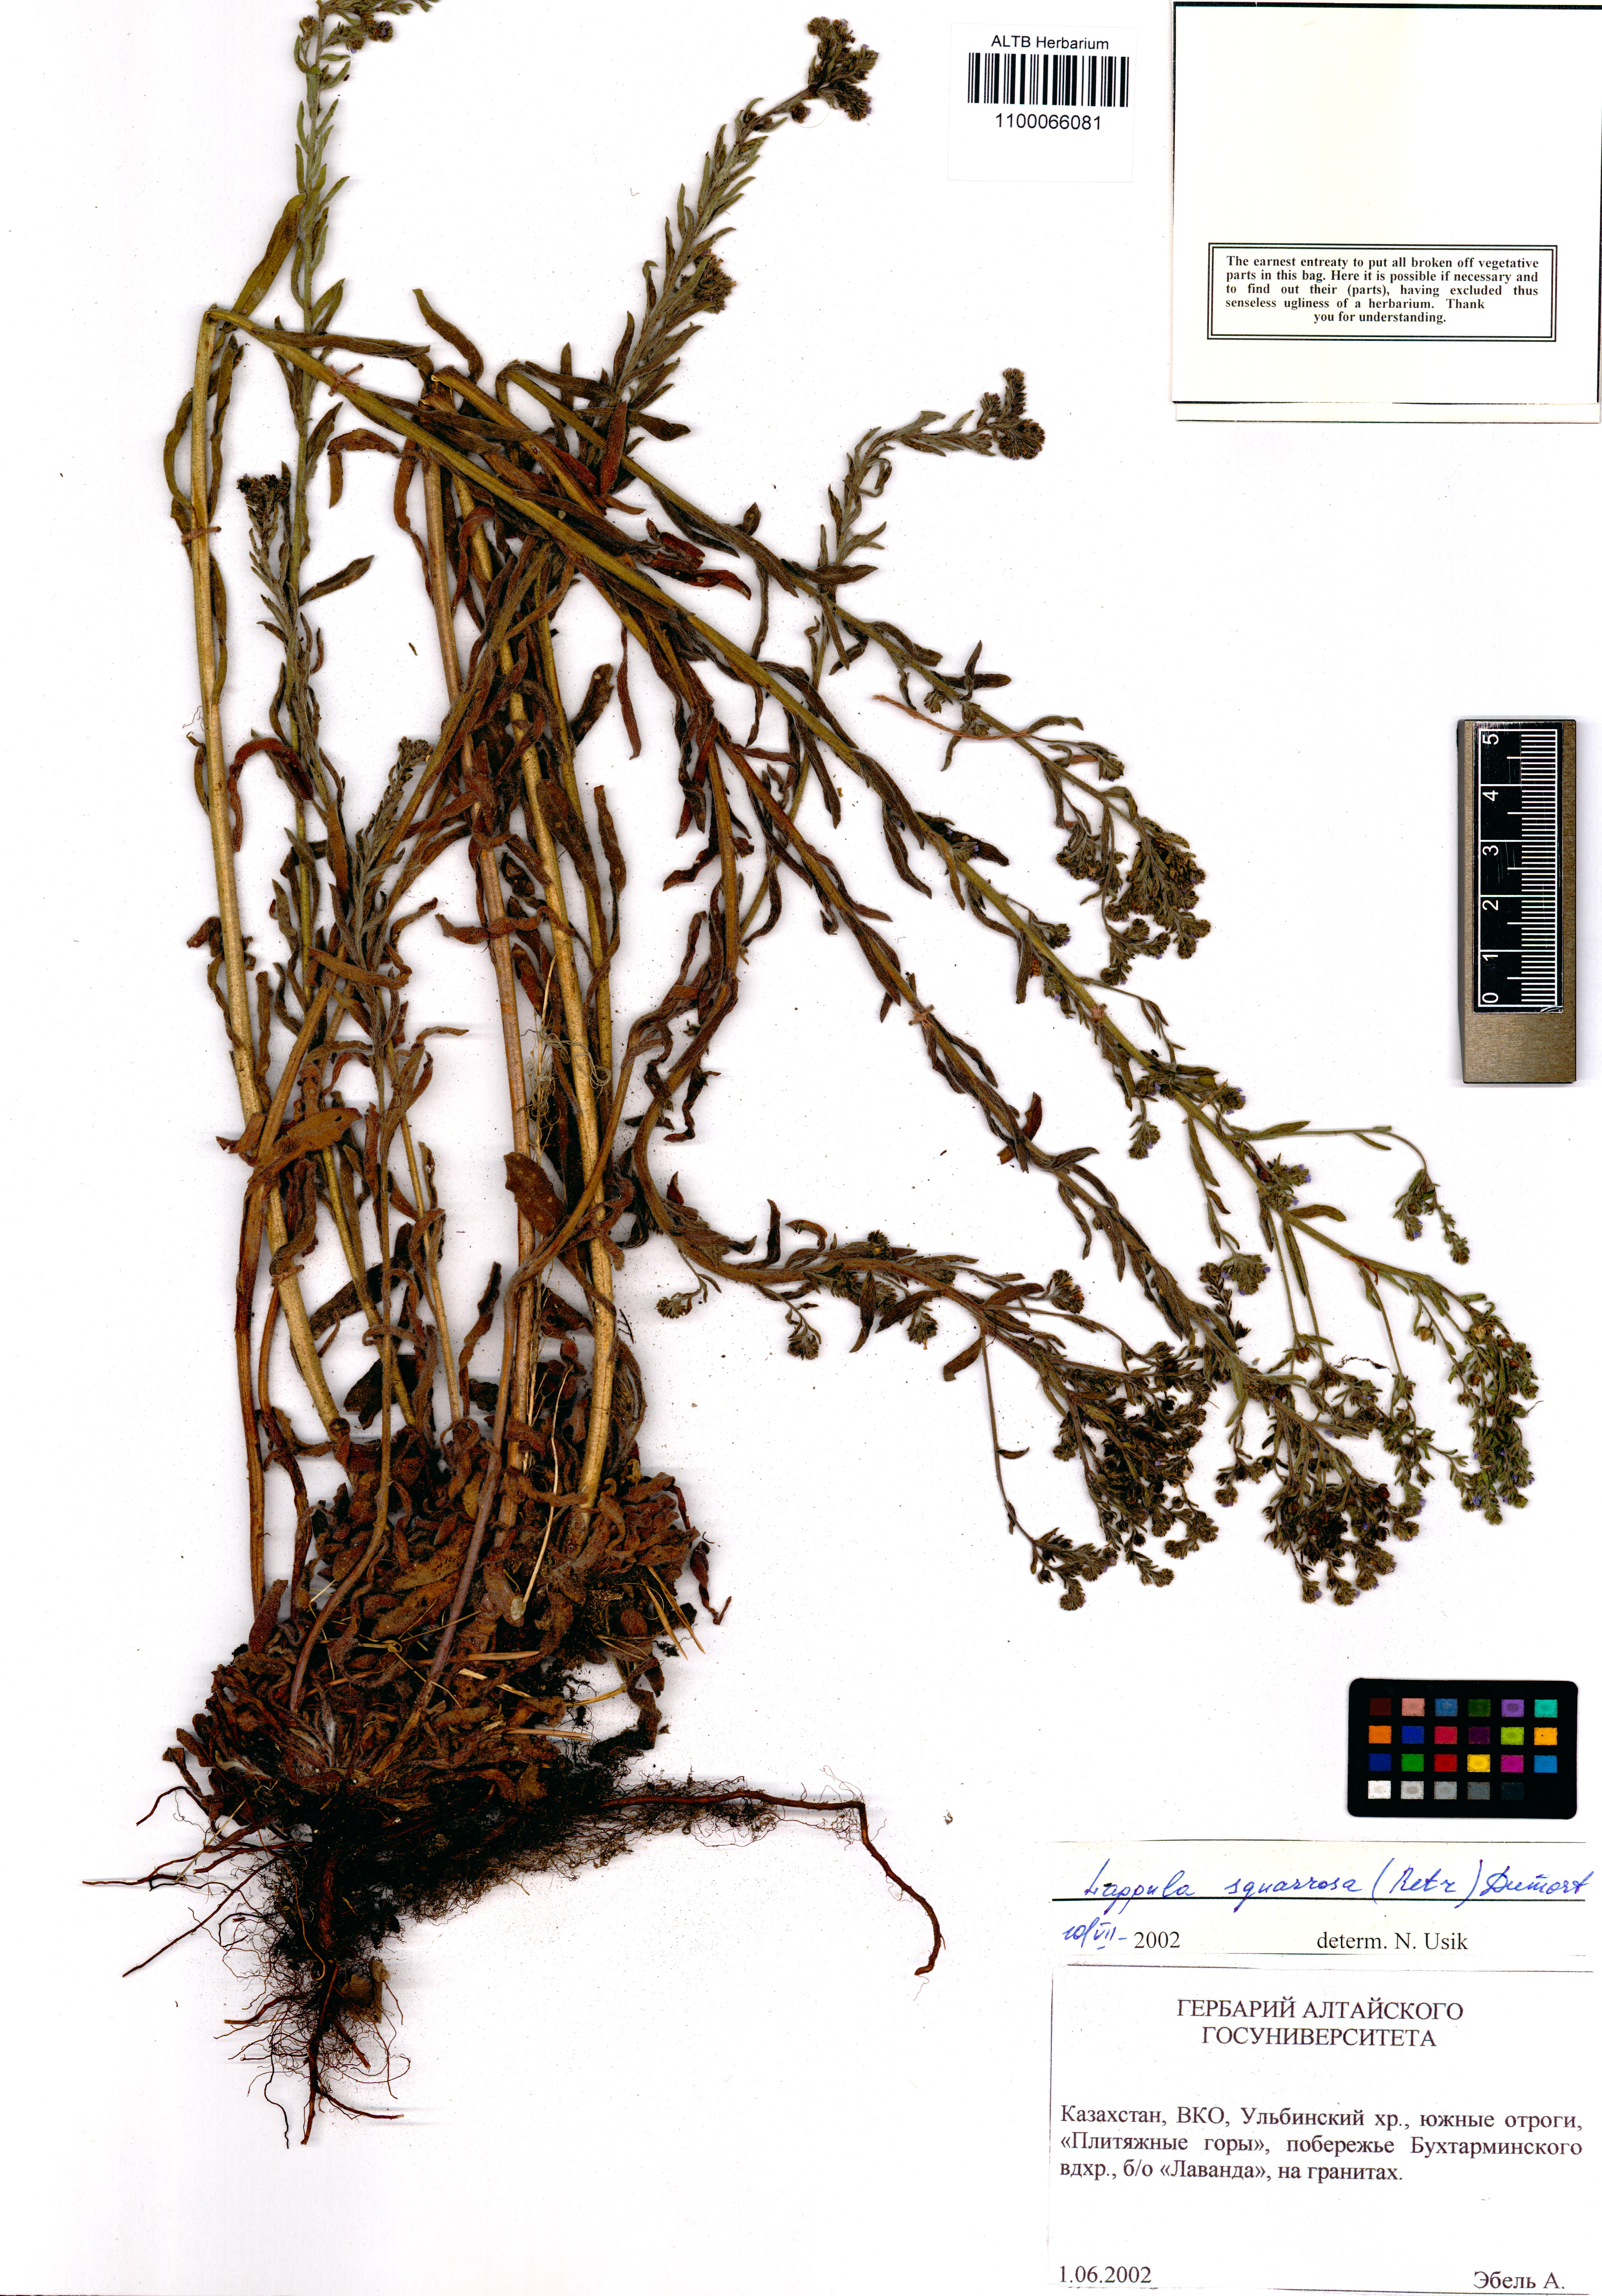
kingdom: Plantae
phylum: Tracheophyta
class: Magnoliopsida
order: Boraginales
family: Boraginaceae
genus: Lappula
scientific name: Lappula squarrosa
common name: European stickseed
